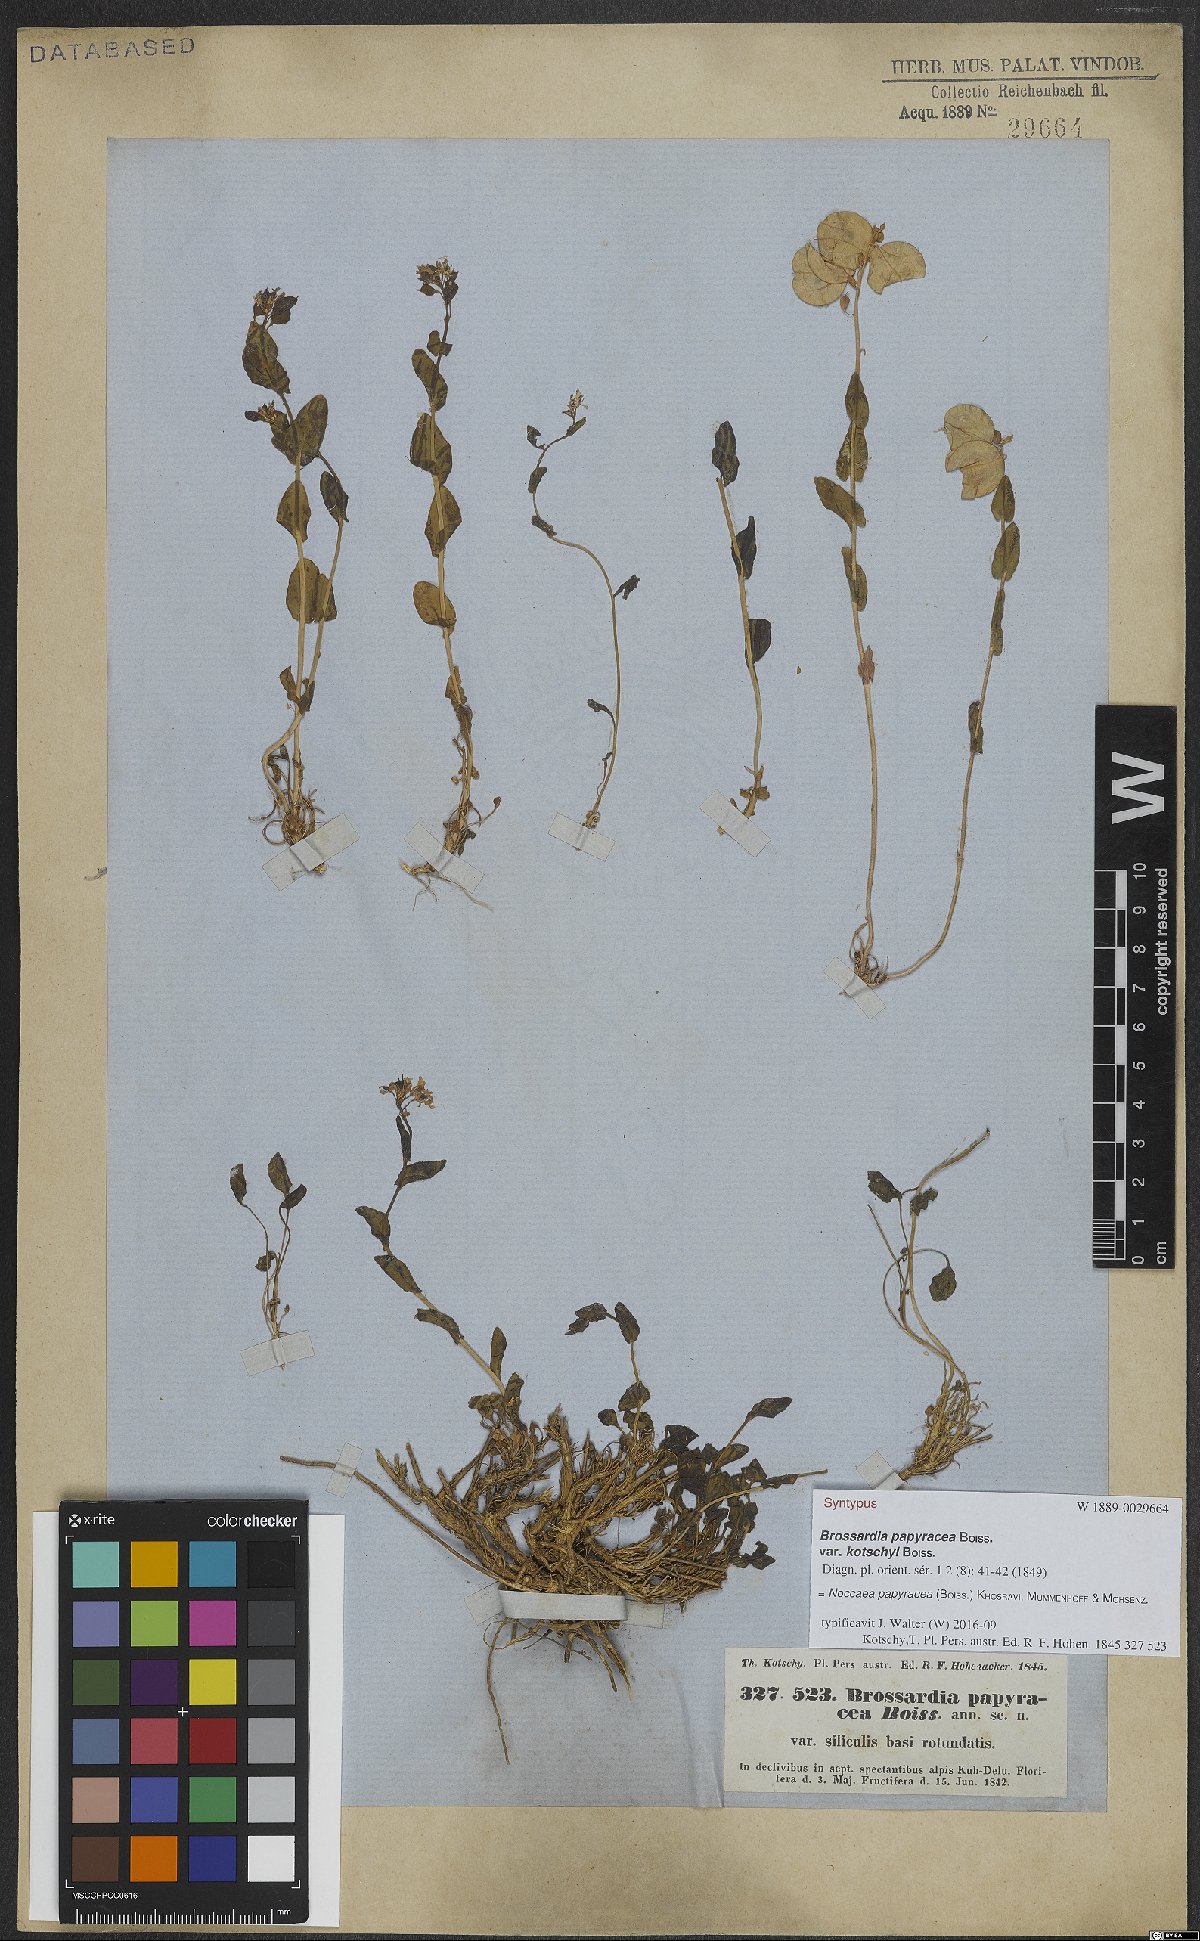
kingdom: Plantae
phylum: Tracheophyta
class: Magnoliopsida
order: Brassicales
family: Brassicaceae
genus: Noccaea
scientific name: Noccaea papyracea
